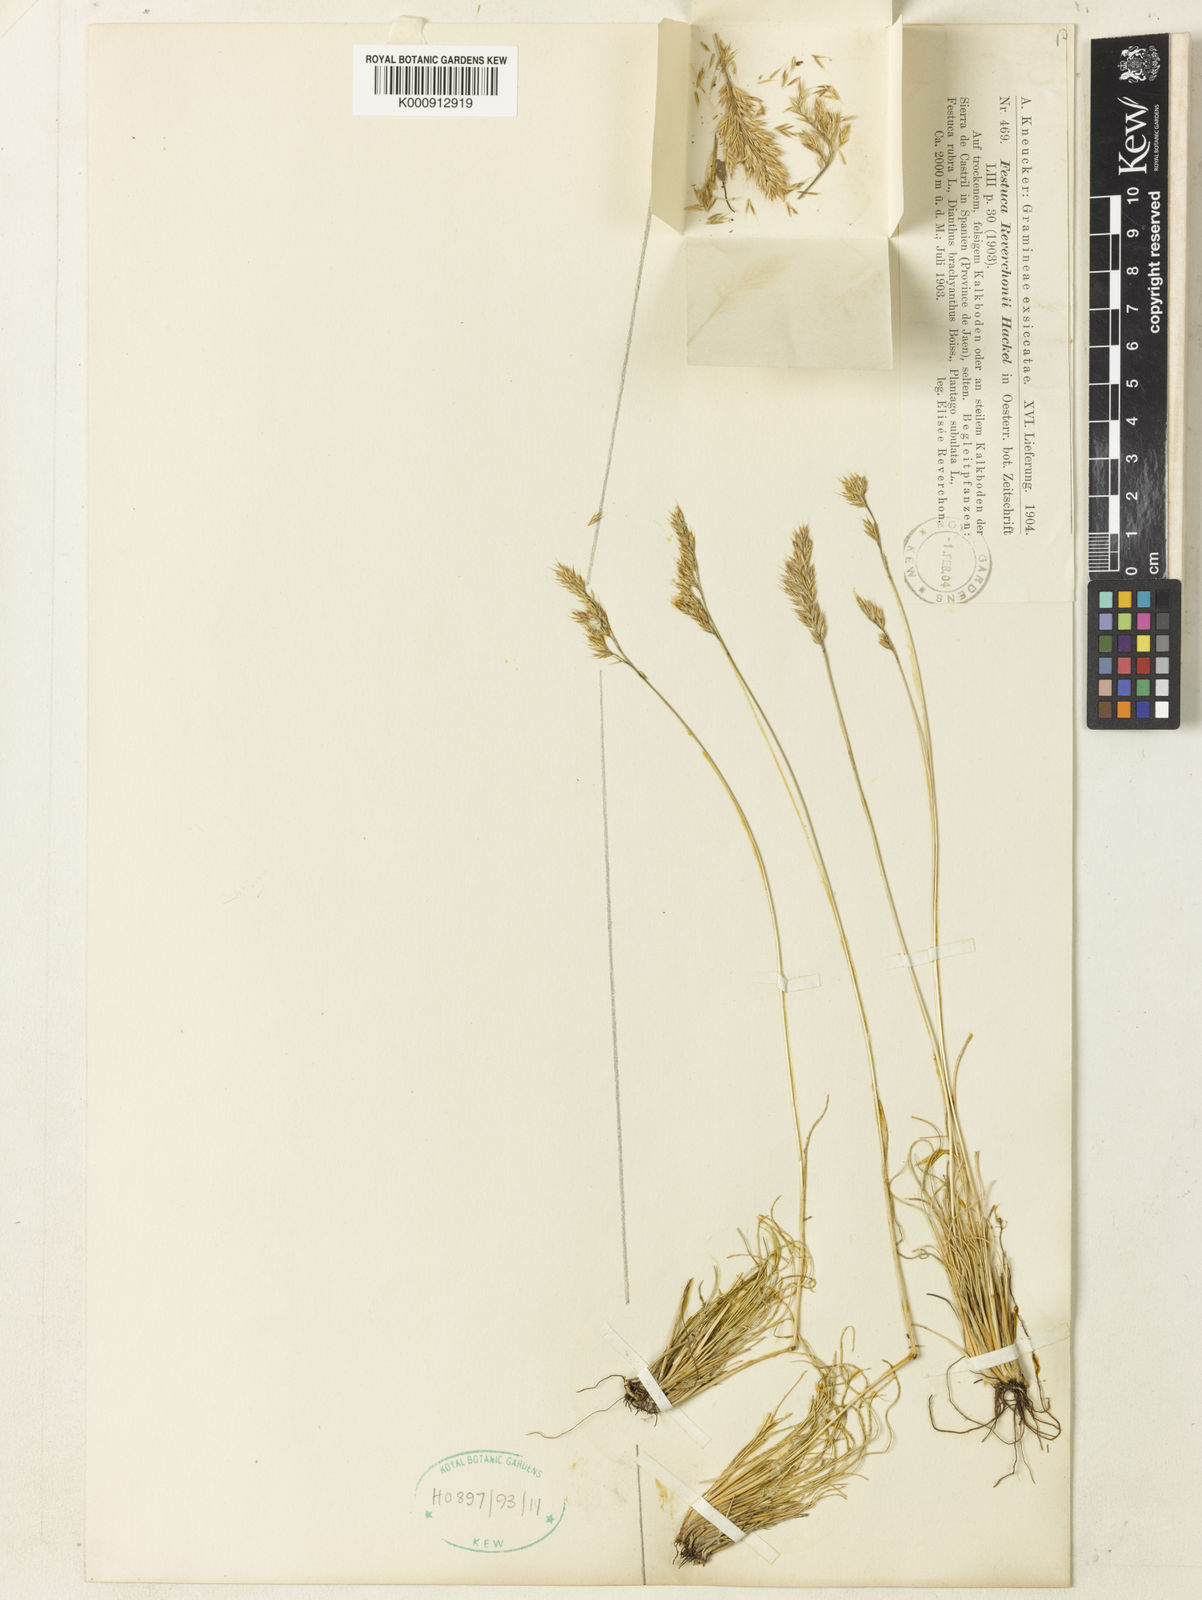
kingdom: Plantae
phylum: Tracheophyta
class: Liliopsida
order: Poales
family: Poaceae
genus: Festuca
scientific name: Festuca reverchonii
